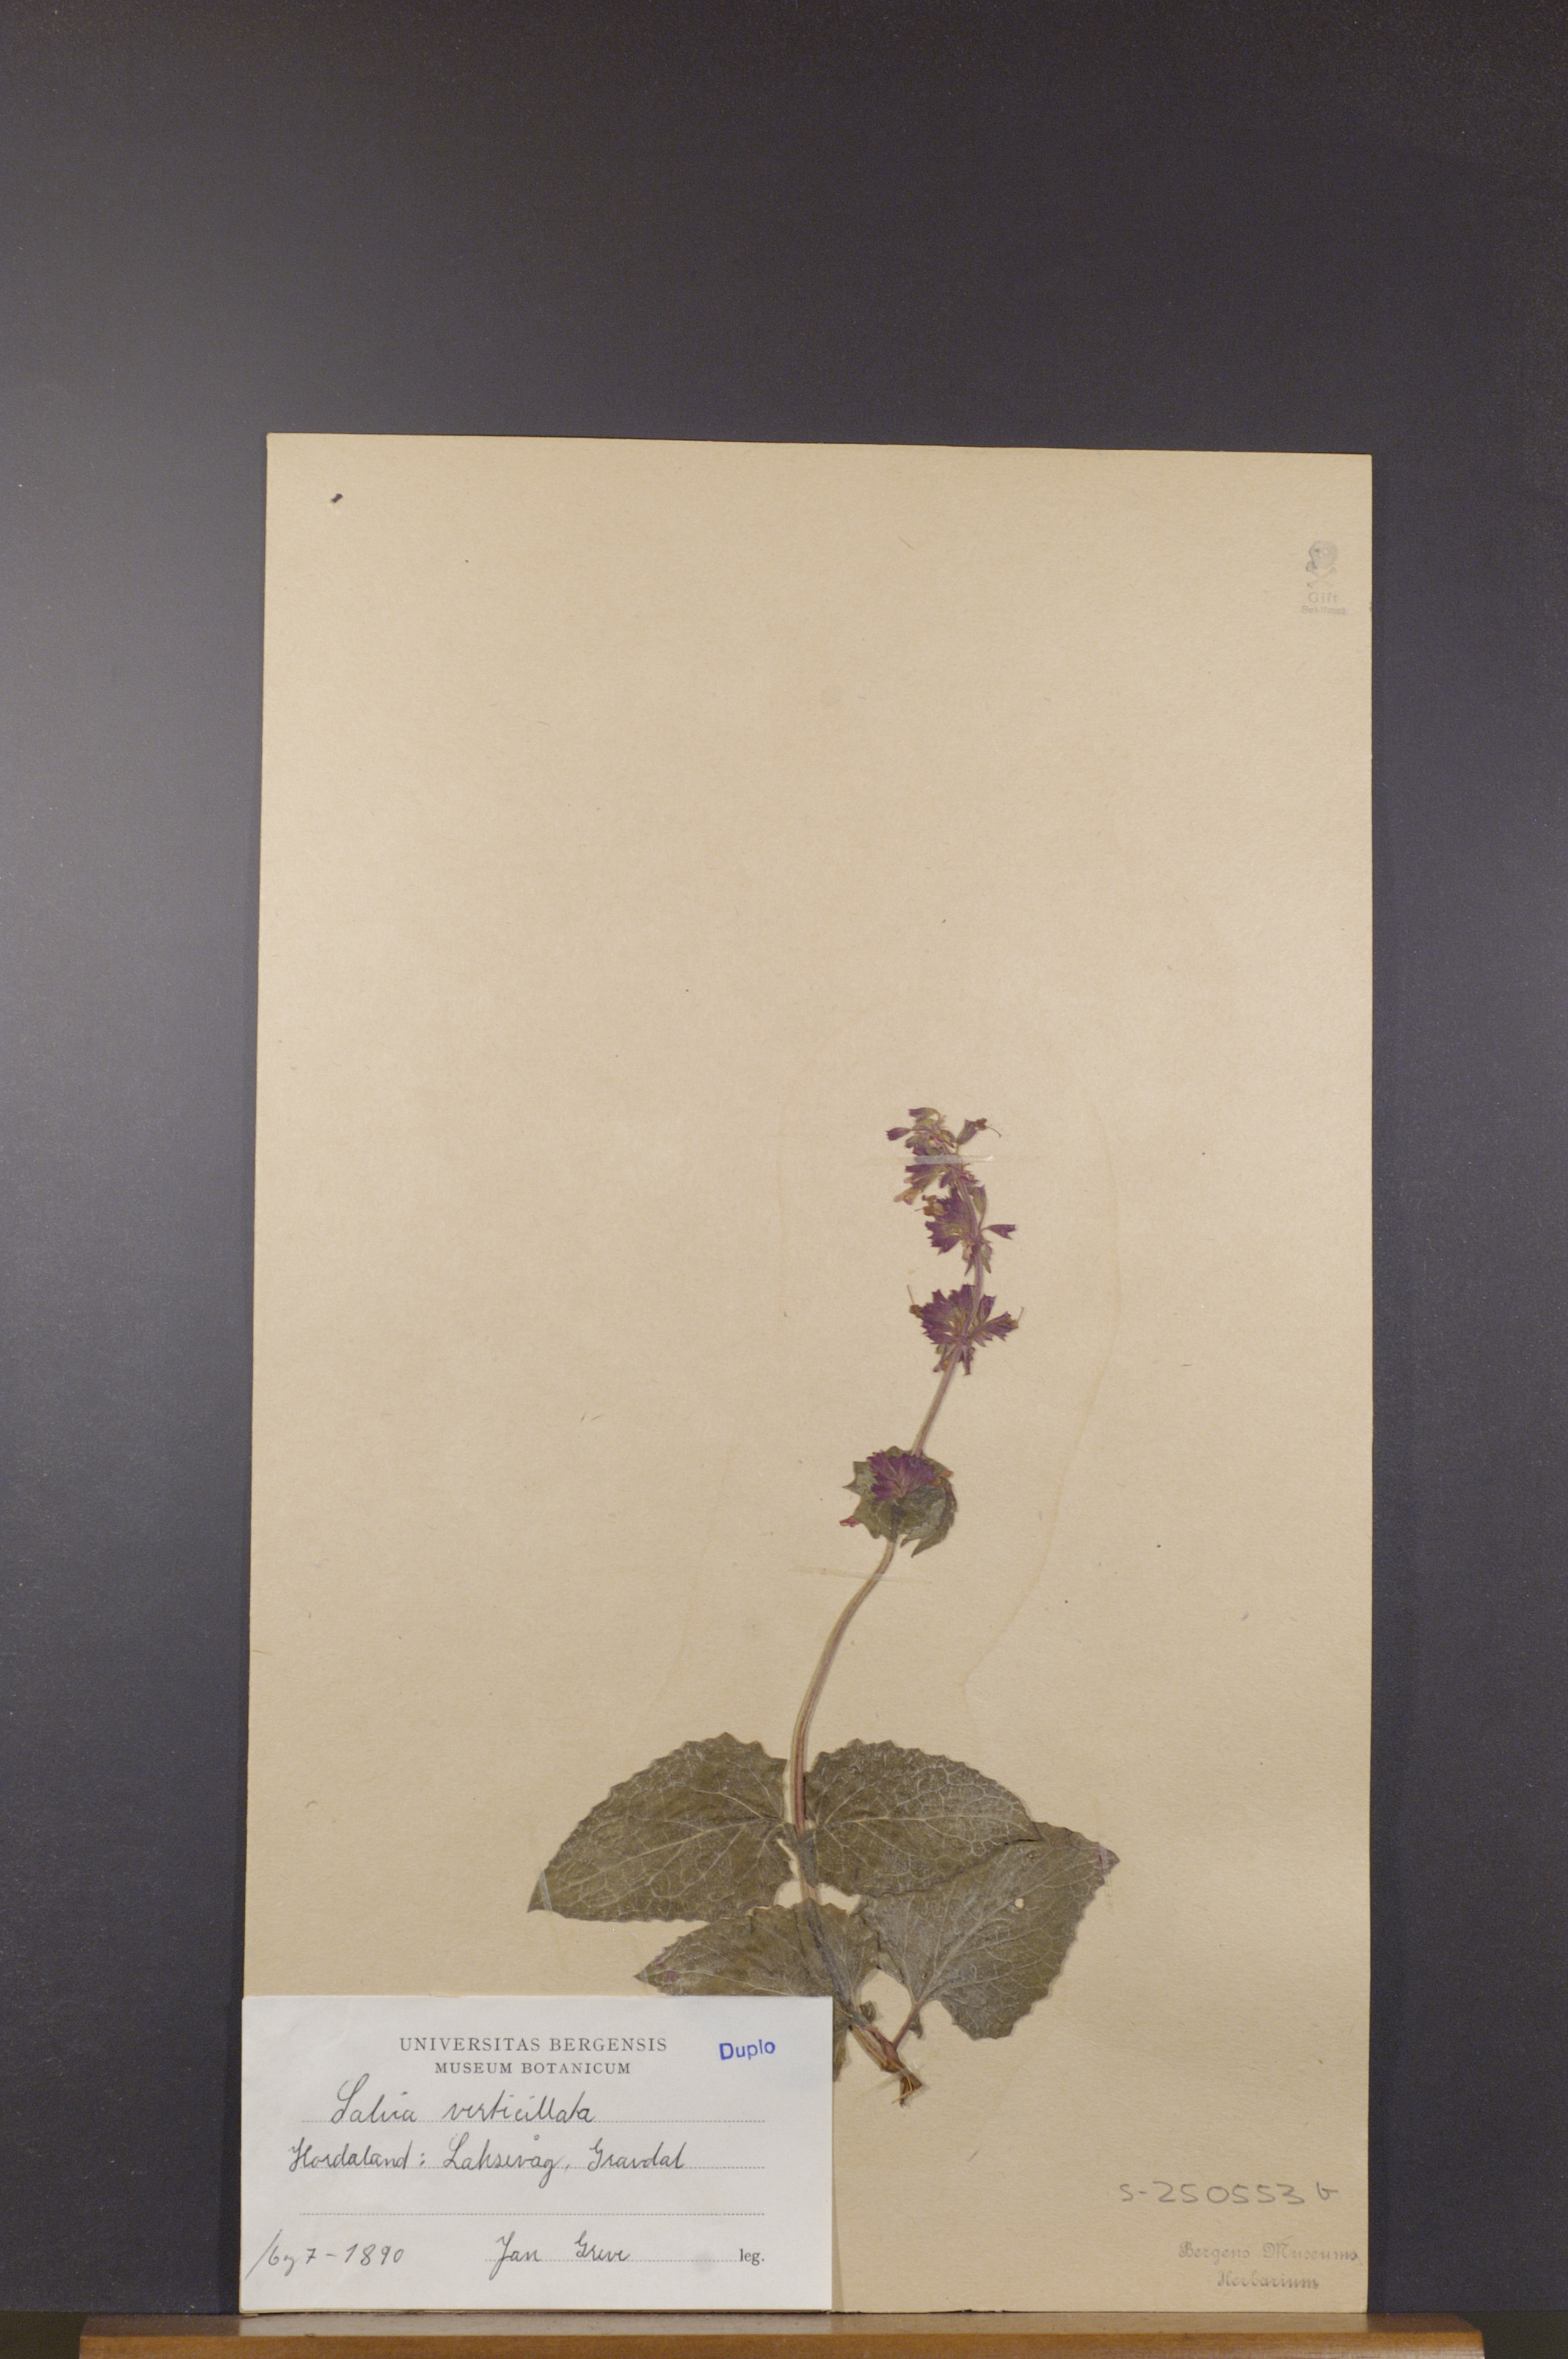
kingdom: Plantae
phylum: Tracheophyta
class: Magnoliopsida
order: Lamiales
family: Lamiaceae
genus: Salvia
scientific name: Salvia verticillata
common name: Whorled clary
